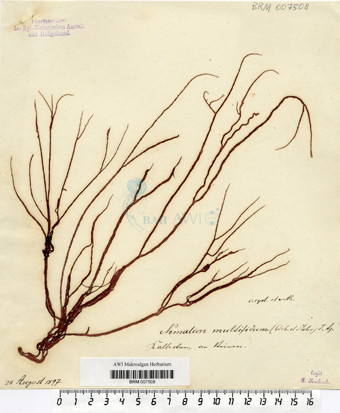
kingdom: Plantae
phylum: Rhodophyta
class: Florideophyceae
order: Nemaliales
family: Nemaliaceae
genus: Nemalion
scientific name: Nemalion multifidum
